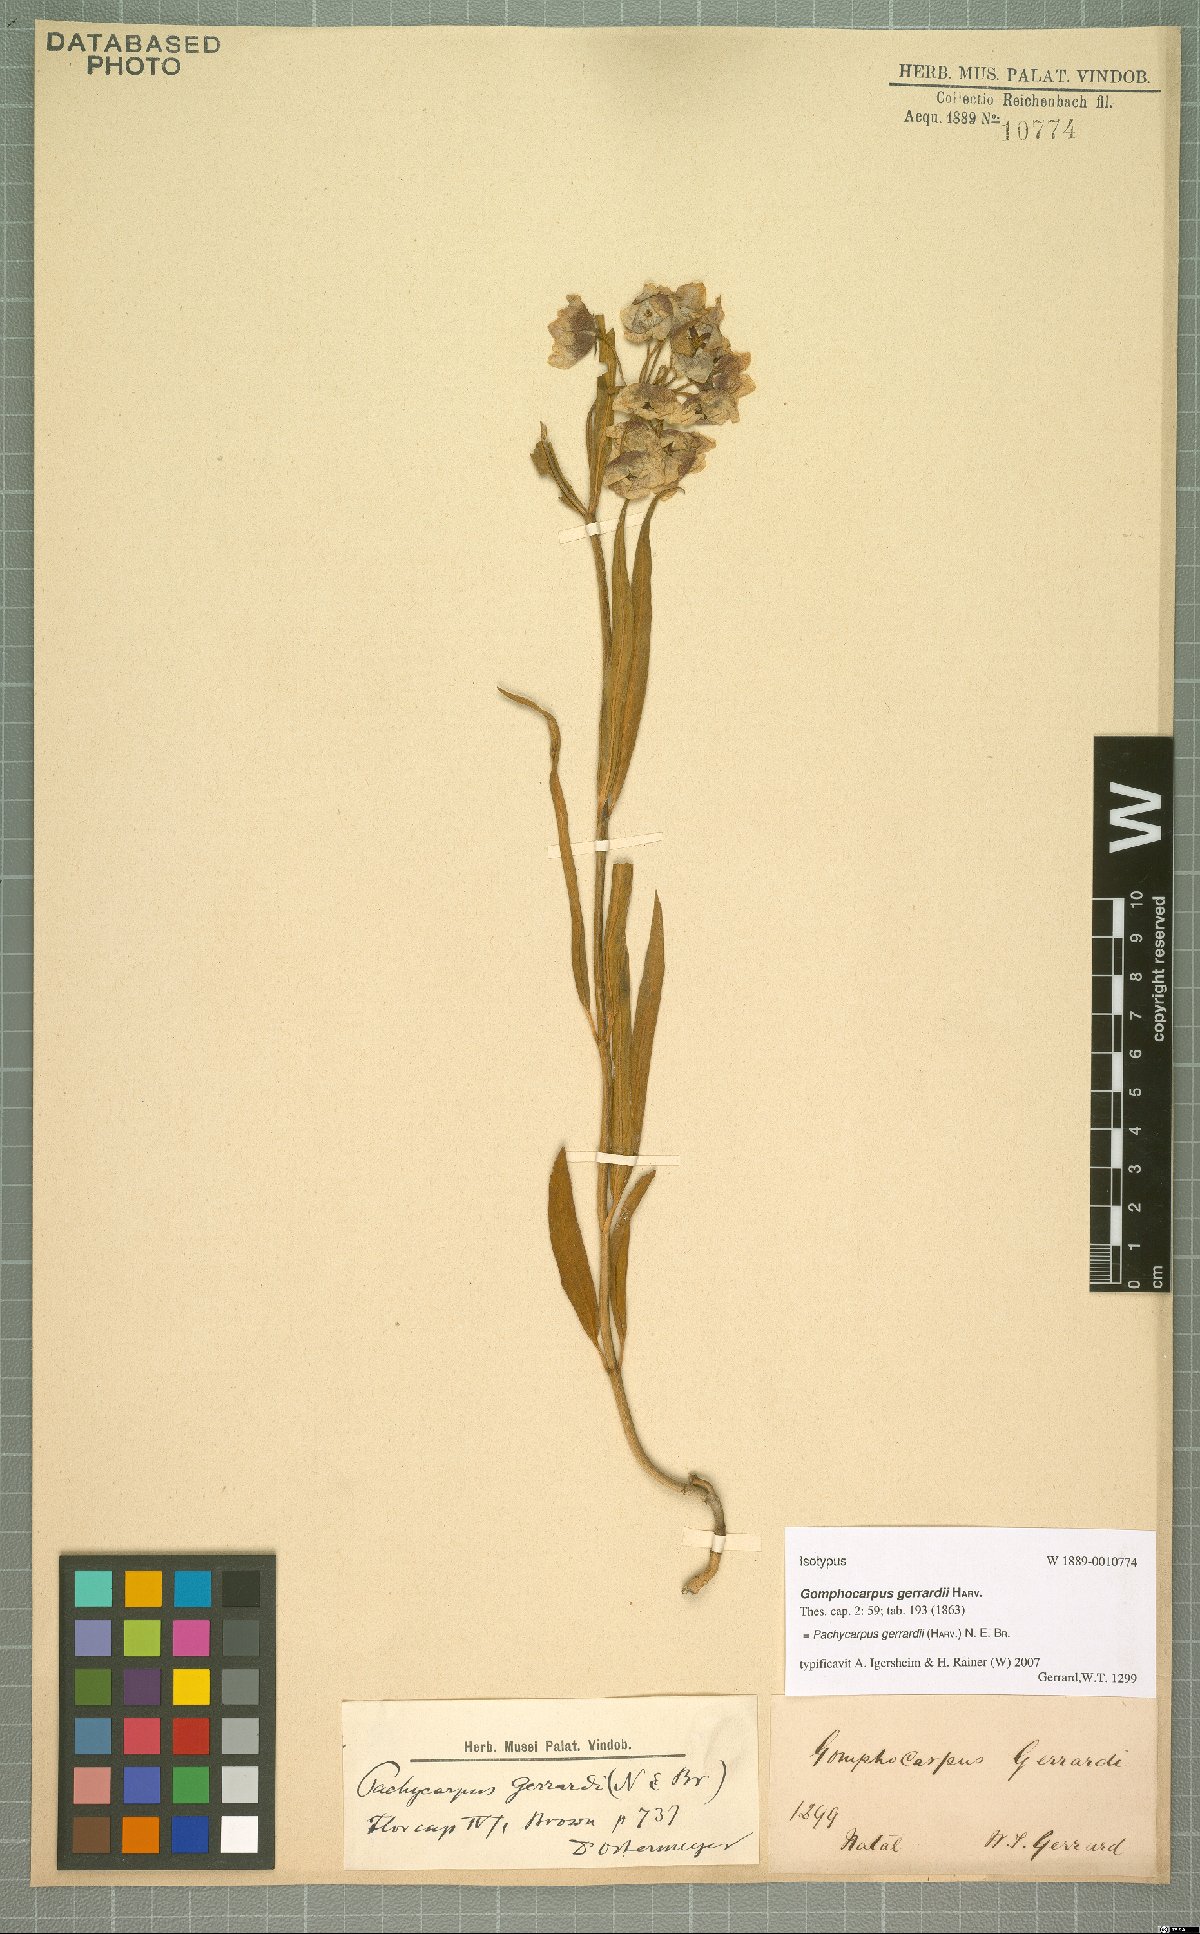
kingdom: Plantae
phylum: Tracheophyta
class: Magnoliopsida
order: Gentianales
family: Apocynaceae
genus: Pachycarpus
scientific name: Pachycarpus campanulatus
